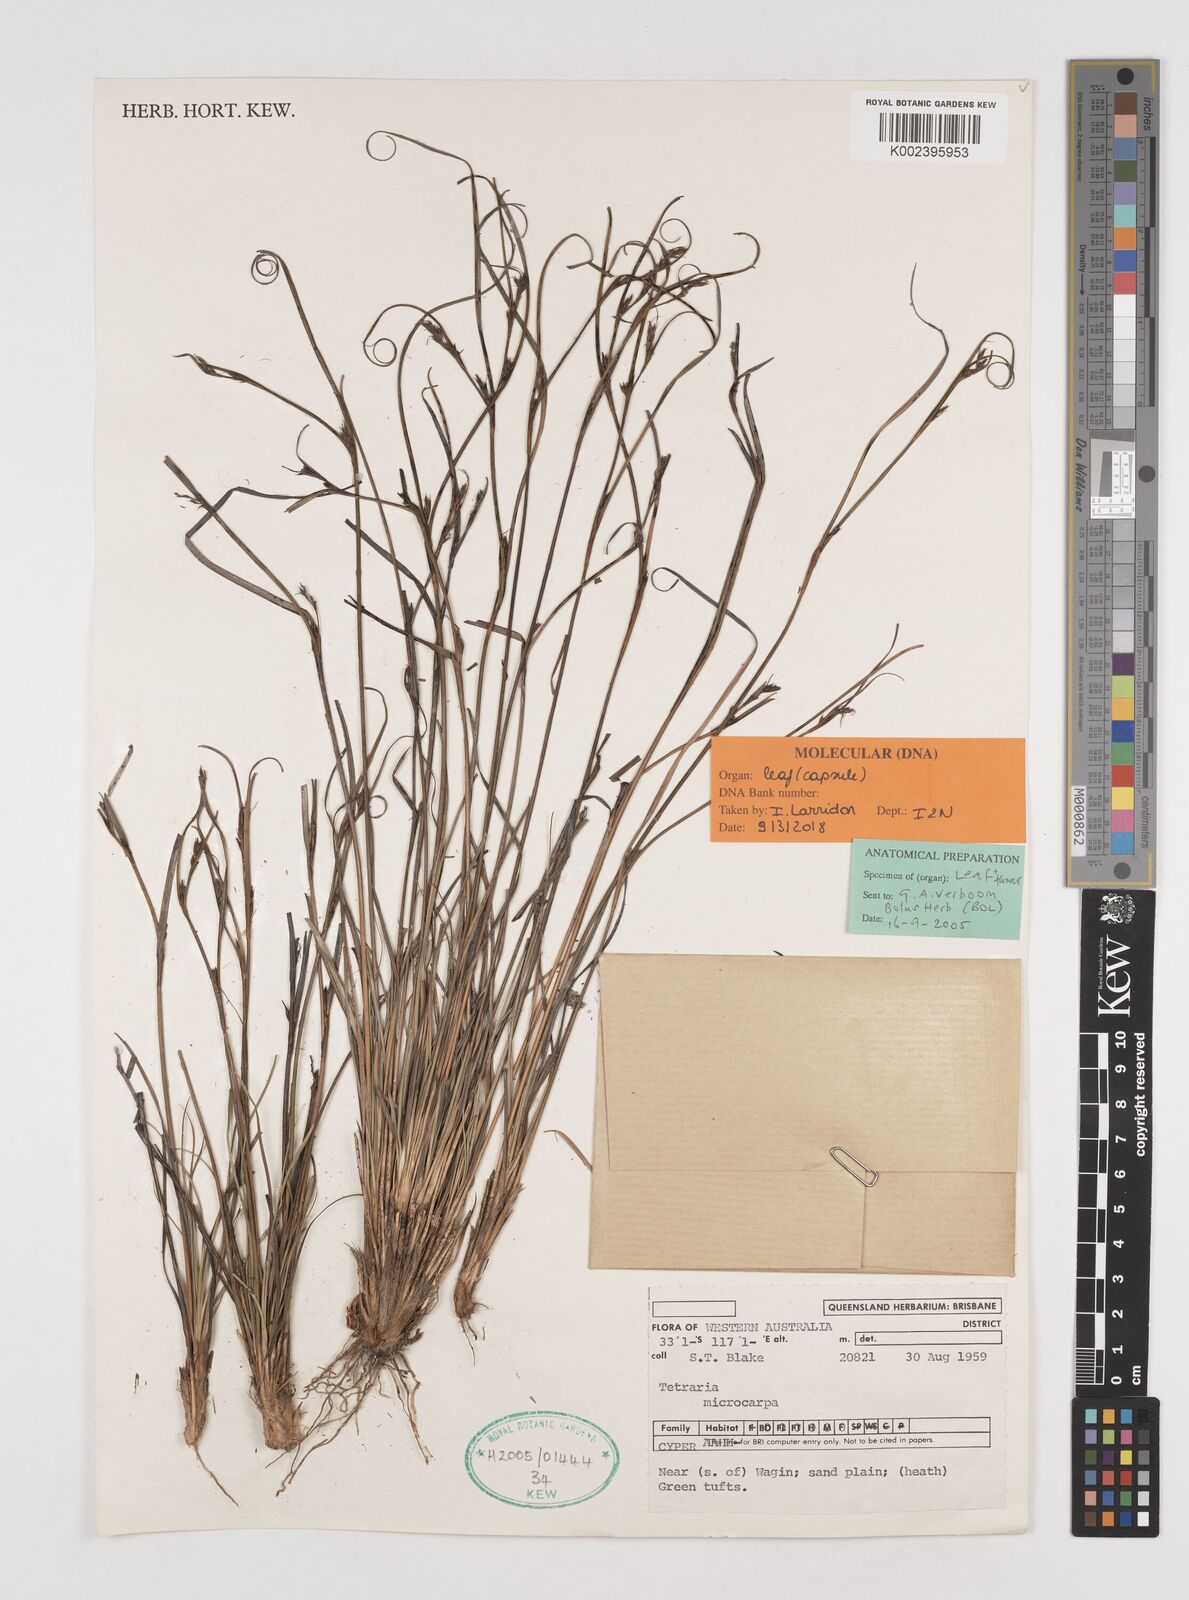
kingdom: Plantae
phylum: Tracheophyta
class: Liliopsida
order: Poales
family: Cyperaceae
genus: Tetraria
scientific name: Tetraria microcarpa
